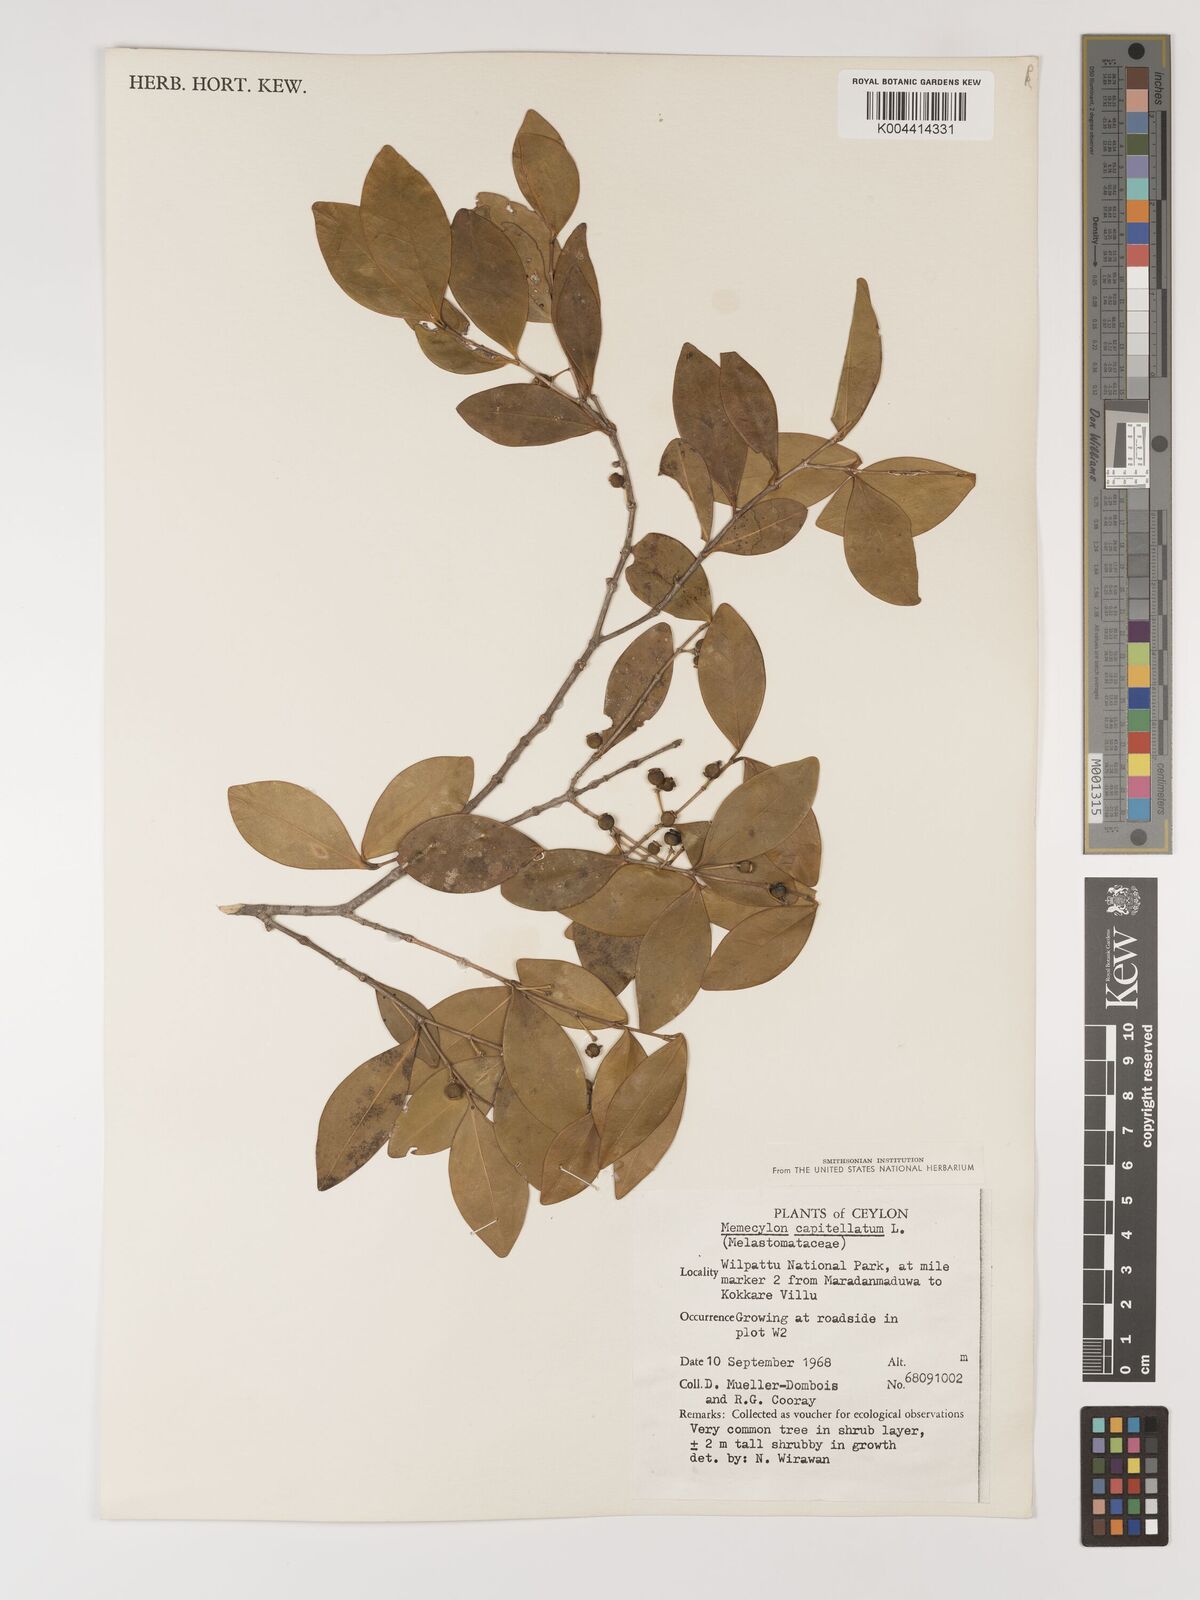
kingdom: Plantae
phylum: Tracheophyta
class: Magnoliopsida
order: Myrtales
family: Melastomataceae
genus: Memecylon
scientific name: Memecylon capitellatum
